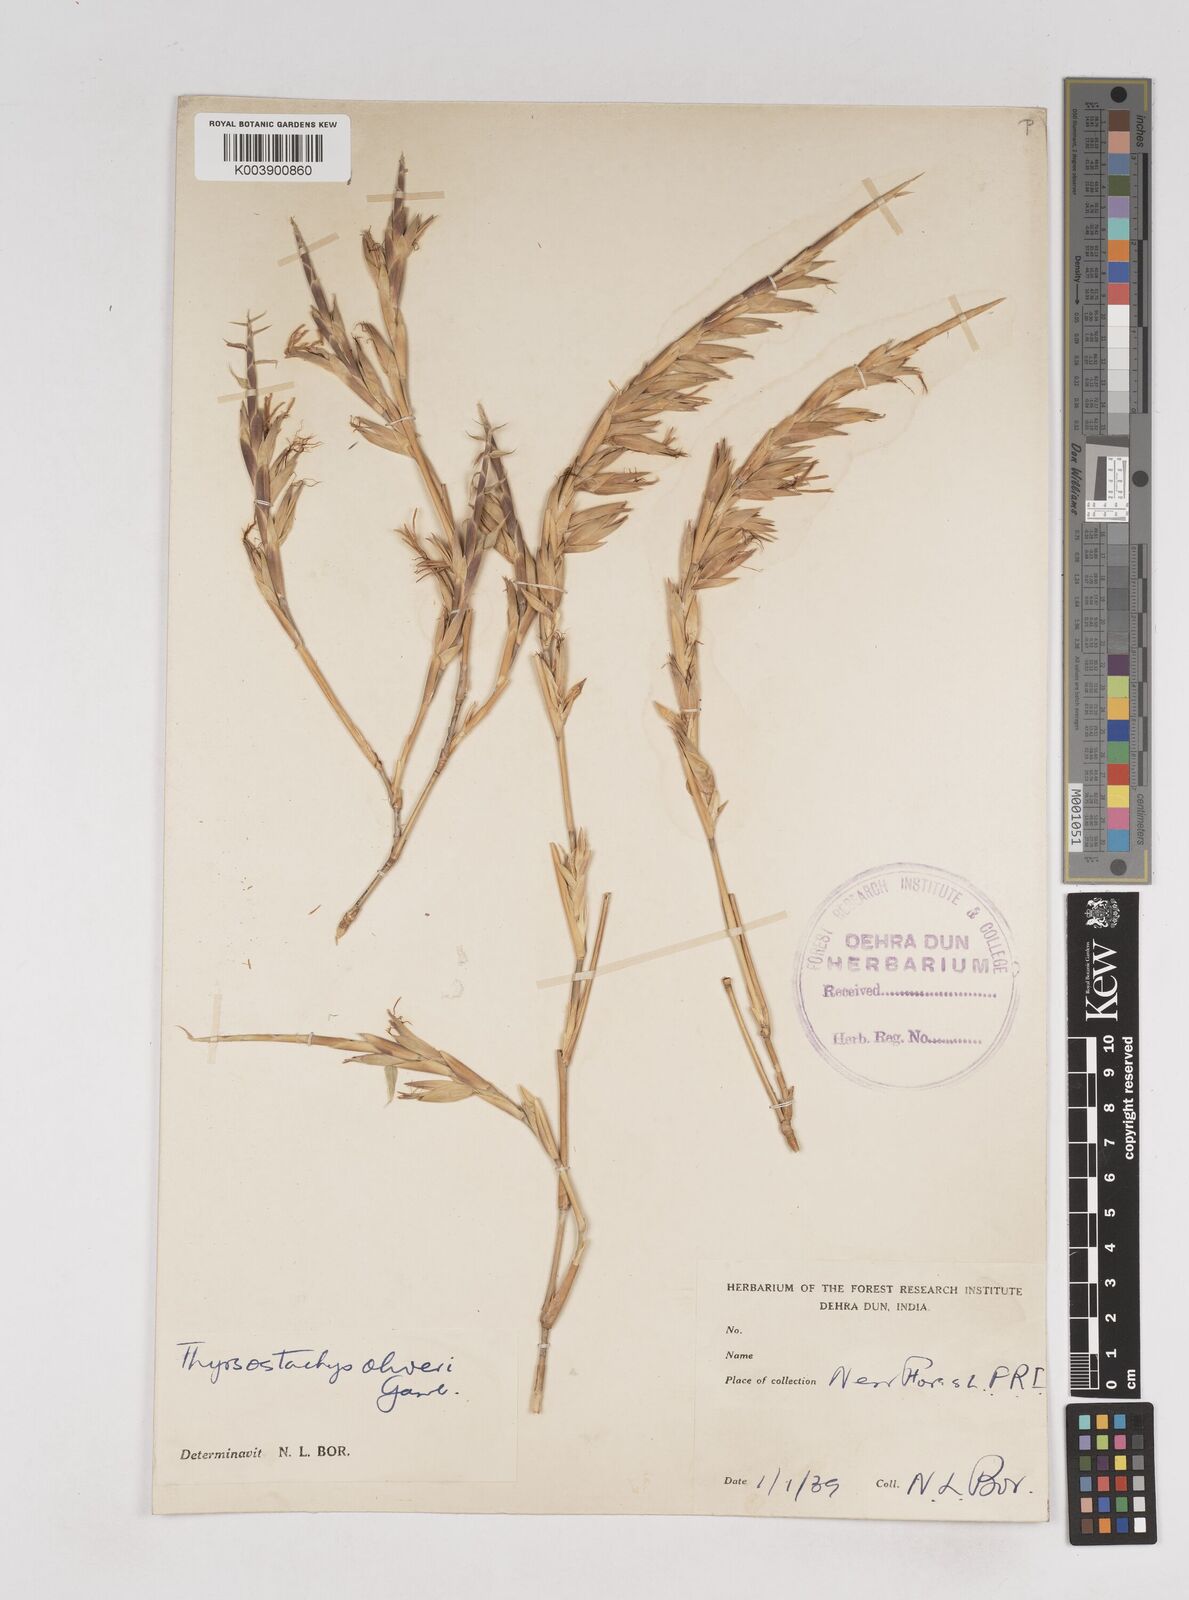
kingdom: Plantae
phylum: Tracheophyta
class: Liliopsida
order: Poales
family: Poaceae
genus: Thyrsostachys
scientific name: Thyrsostachys oliveri
